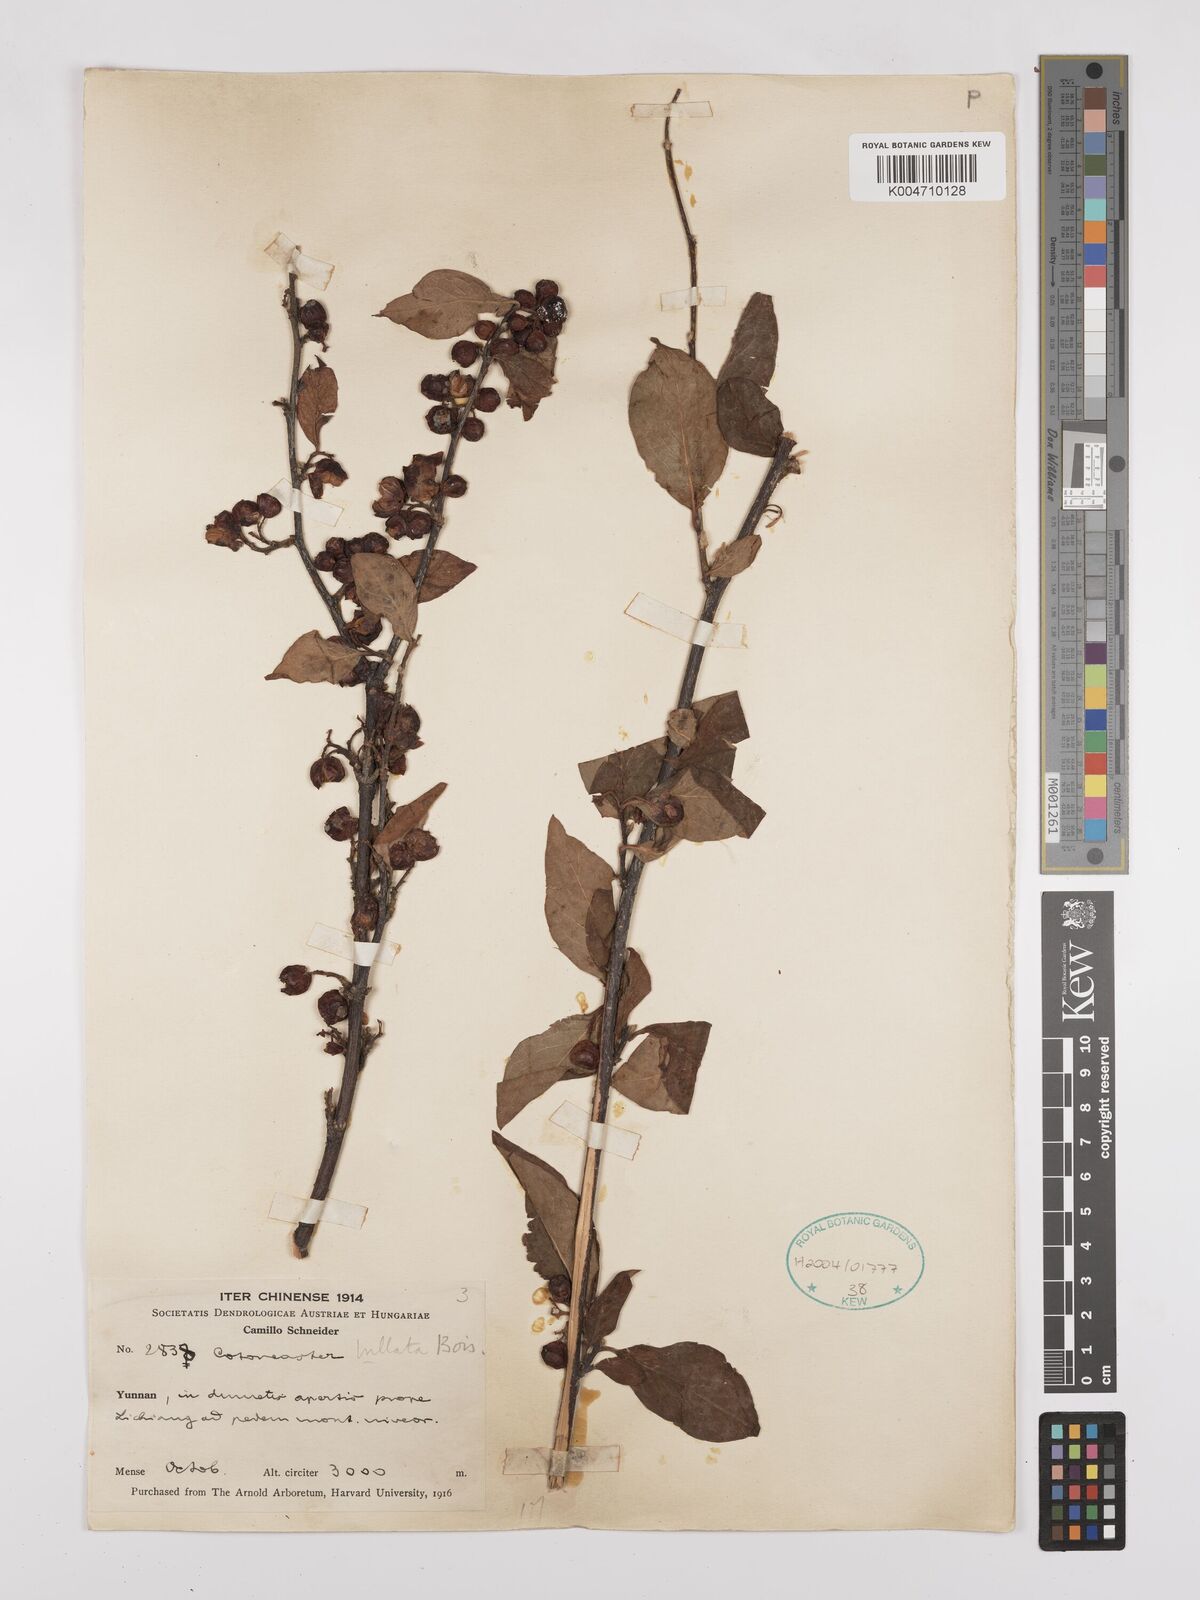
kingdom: Plantae
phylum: Tracheophyta
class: Magnoliopsida
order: Rosales
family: Rosaceae
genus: Cotoneaster
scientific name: Cotoneaster bullatus
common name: Hollyberry cotoneaster
